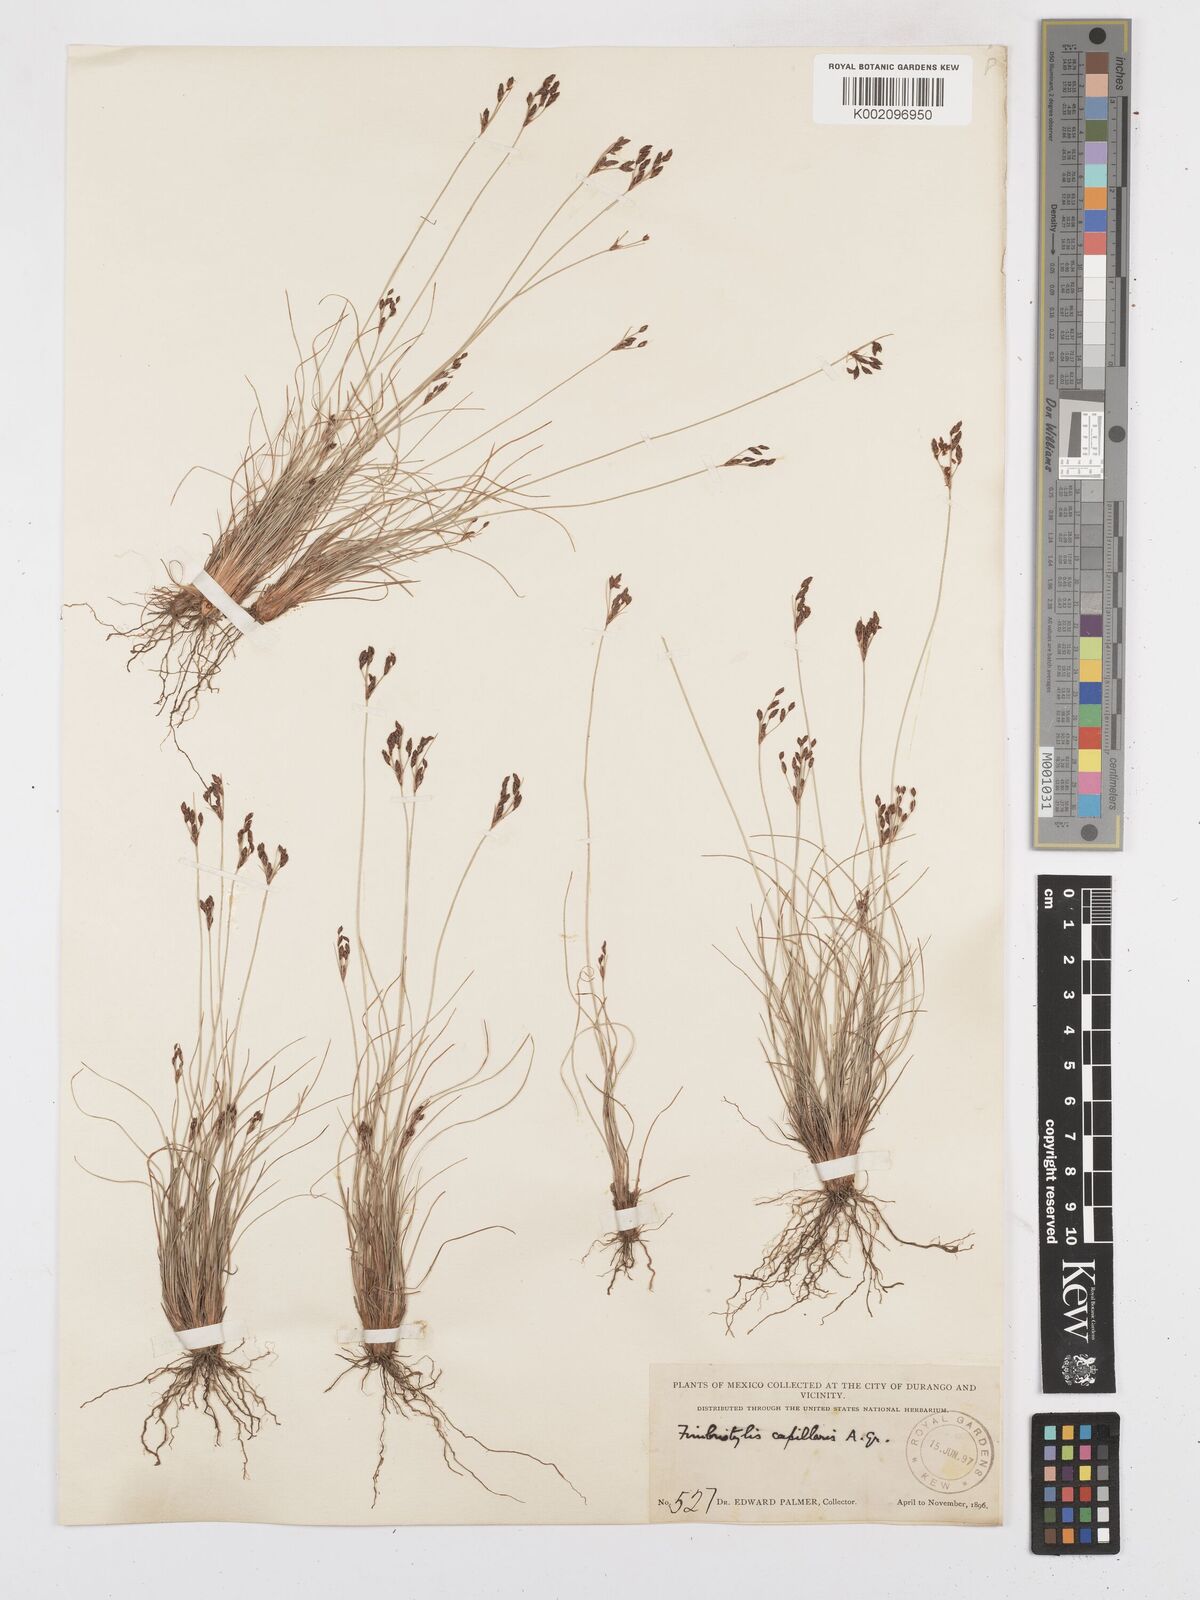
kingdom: Plantae
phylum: Tracheophyta
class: Liliopsida
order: Poales
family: Cyperaceae
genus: Bulbostylis
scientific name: Bulbostylis capillaris
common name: Densetuft hairsedge
